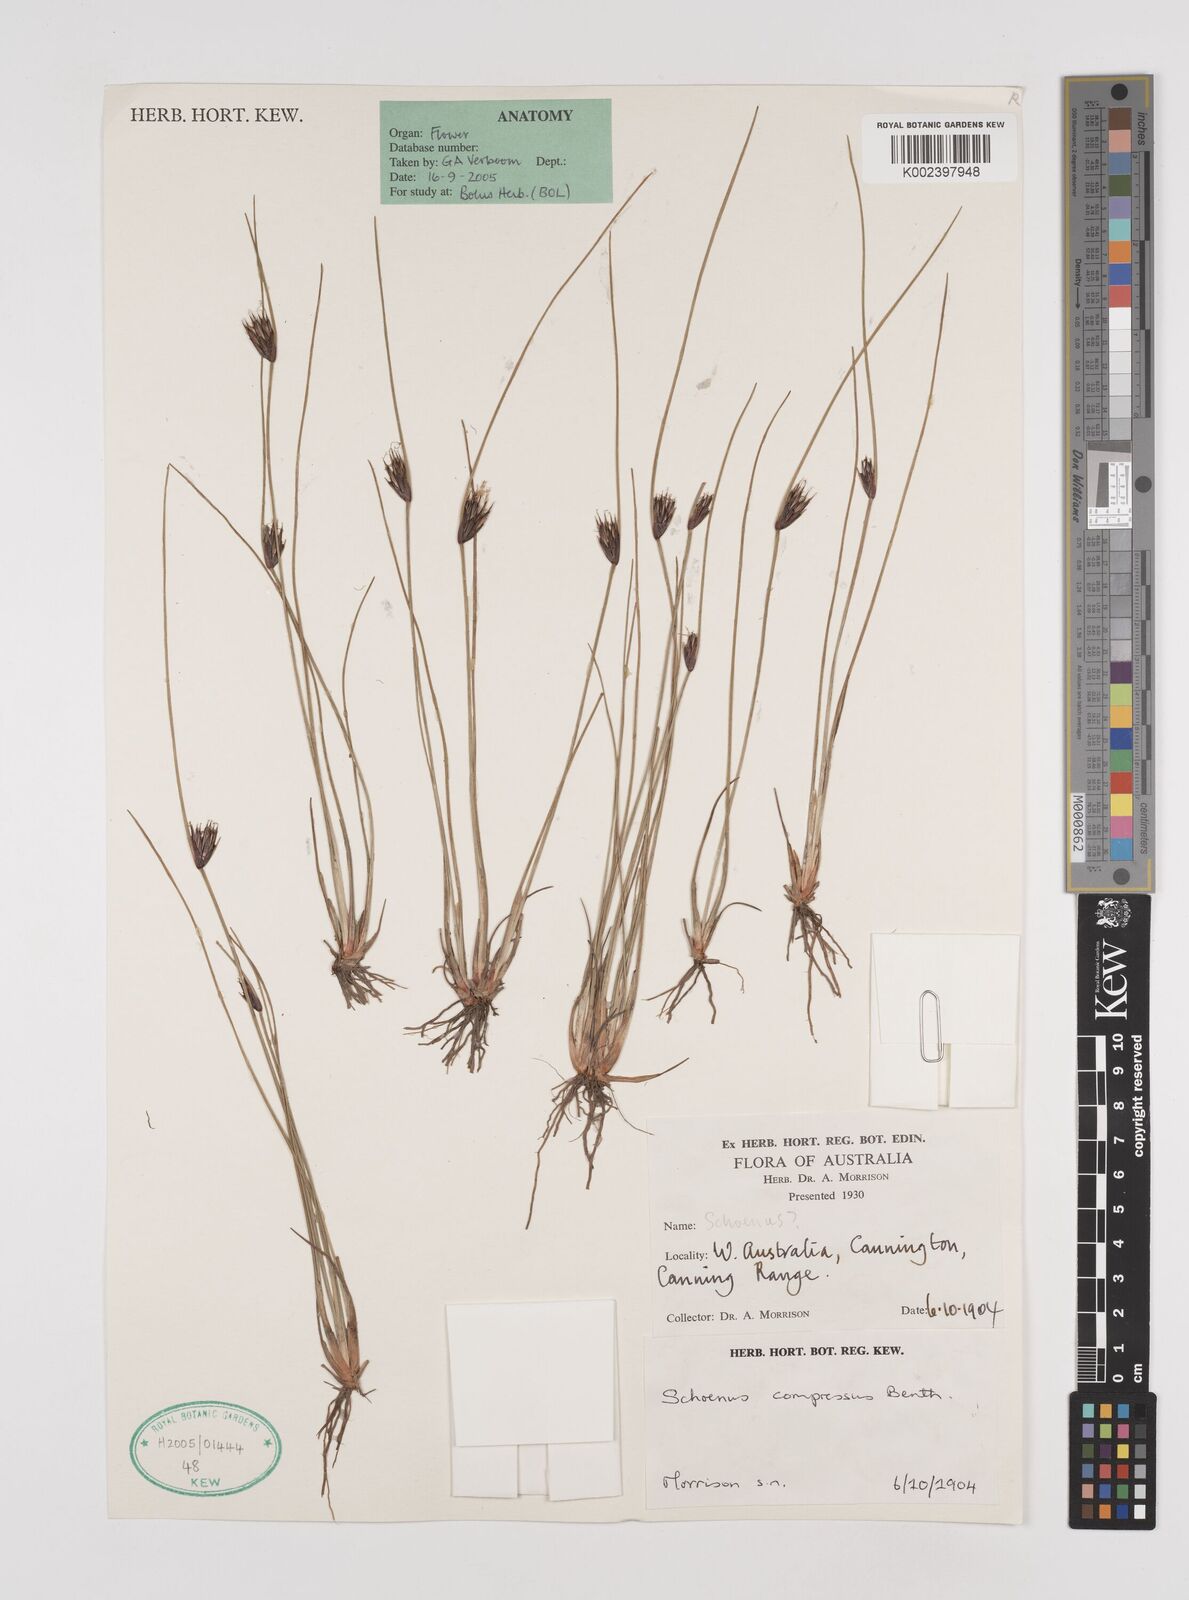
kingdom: Plantae
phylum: Tracheophyta
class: Liliopsida
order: Poales
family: Cyperaceae
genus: Schoenus
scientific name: Schoenus benthamii
